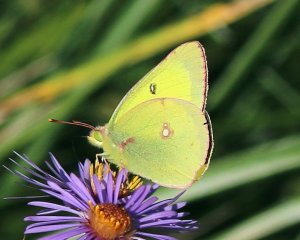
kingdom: Animalia
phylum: Arthropoda
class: Insecta
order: Lepidoptera
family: Pieridae
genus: Colias
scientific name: Colias philodice
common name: Clouded Sulphur
